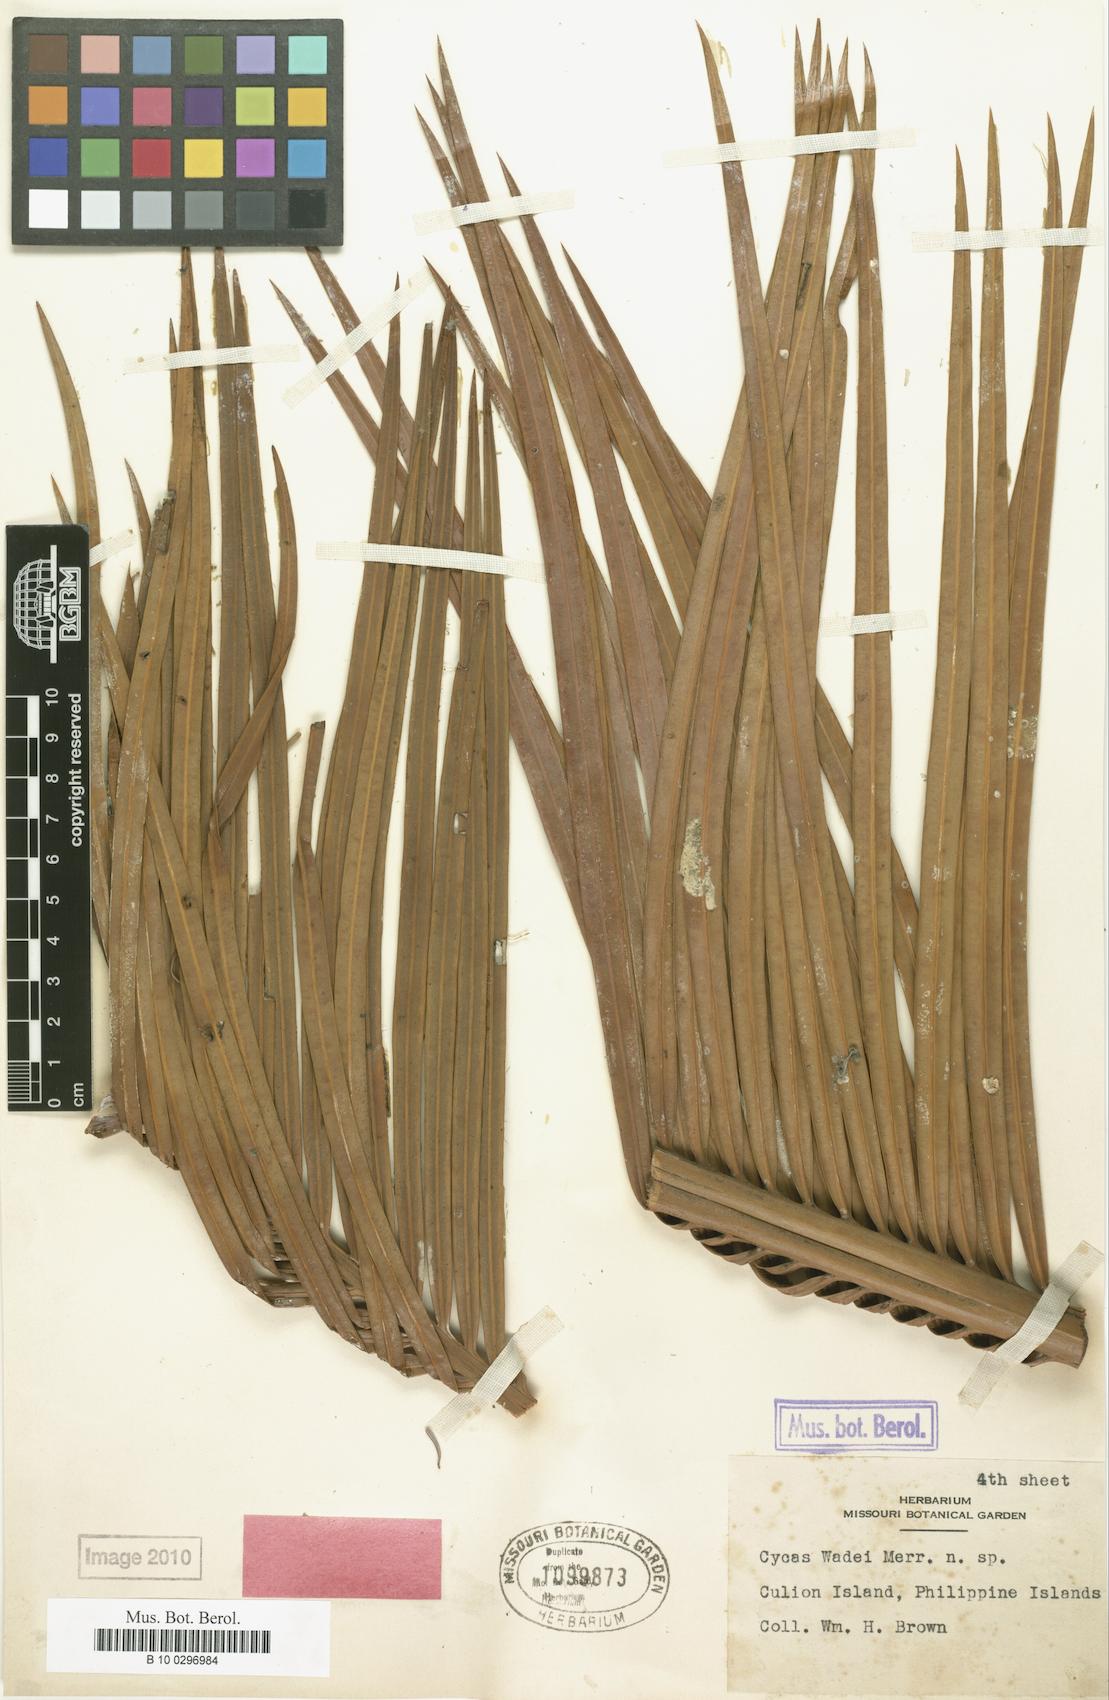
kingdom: Plantae
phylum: Tracheophyta
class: Cycadopsida
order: Cycadales
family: Cycadaceae
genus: Cycas
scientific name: Cycas wadei
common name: Wade’s pitogo
